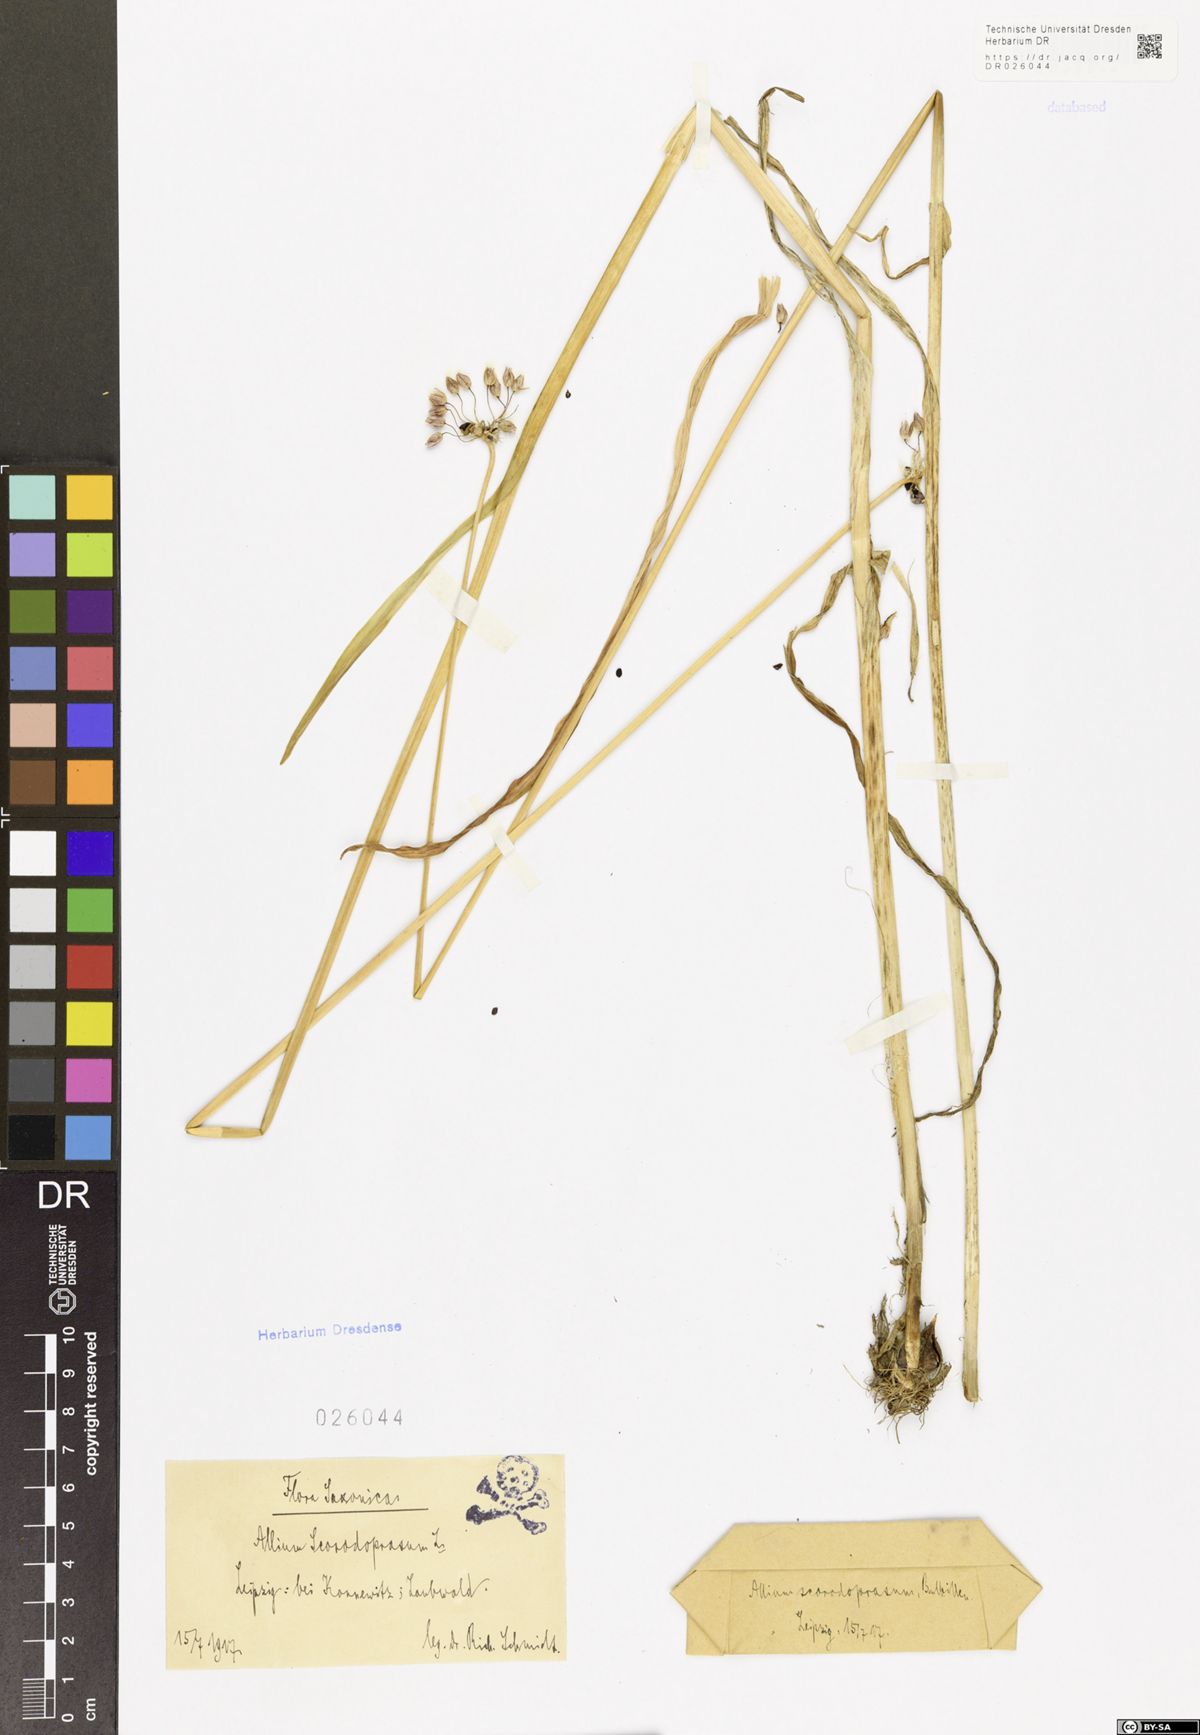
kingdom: Plantae
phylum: Tracheophyta
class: Liliopsida
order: Asparagales
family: Amaryllidaceae
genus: Allium
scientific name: Allium scorodoprasum
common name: Sand leek
